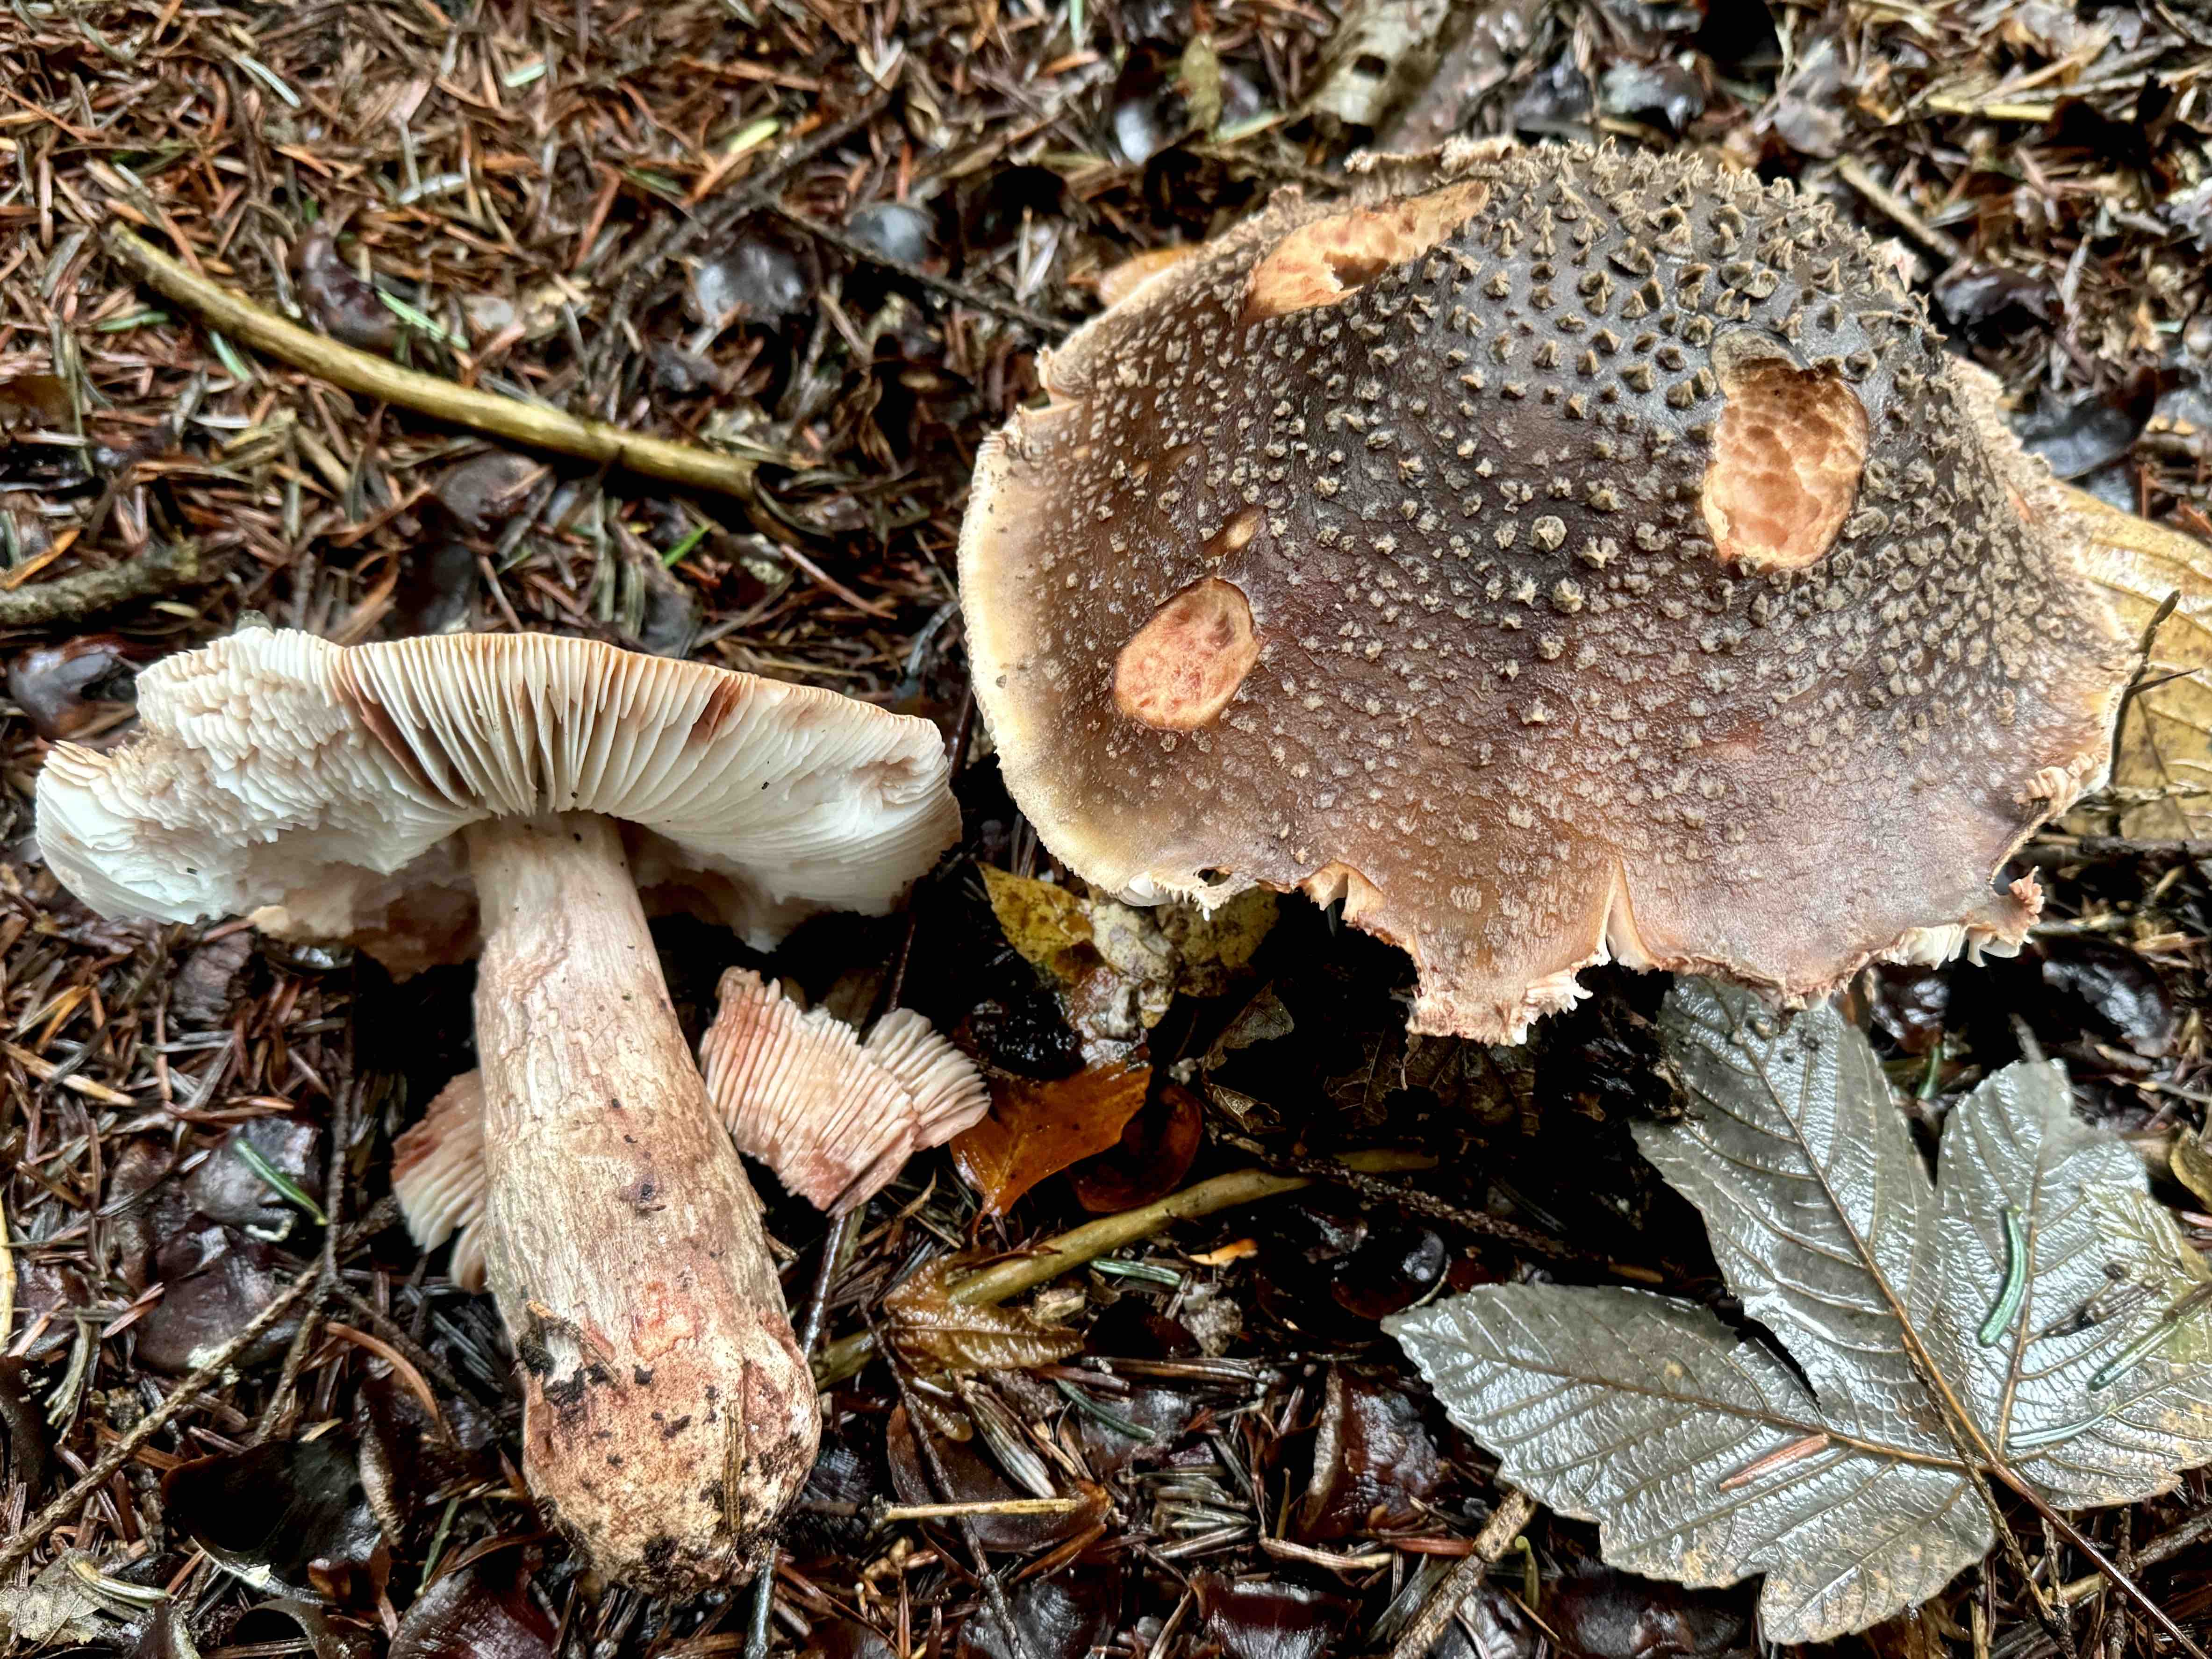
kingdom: Fungi
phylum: Basidiomycota
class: Agaricomycetes
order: Agaricales
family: Amanitaceae
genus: Amanita
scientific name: Amanita rubescens
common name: rødmende fluesvamp
